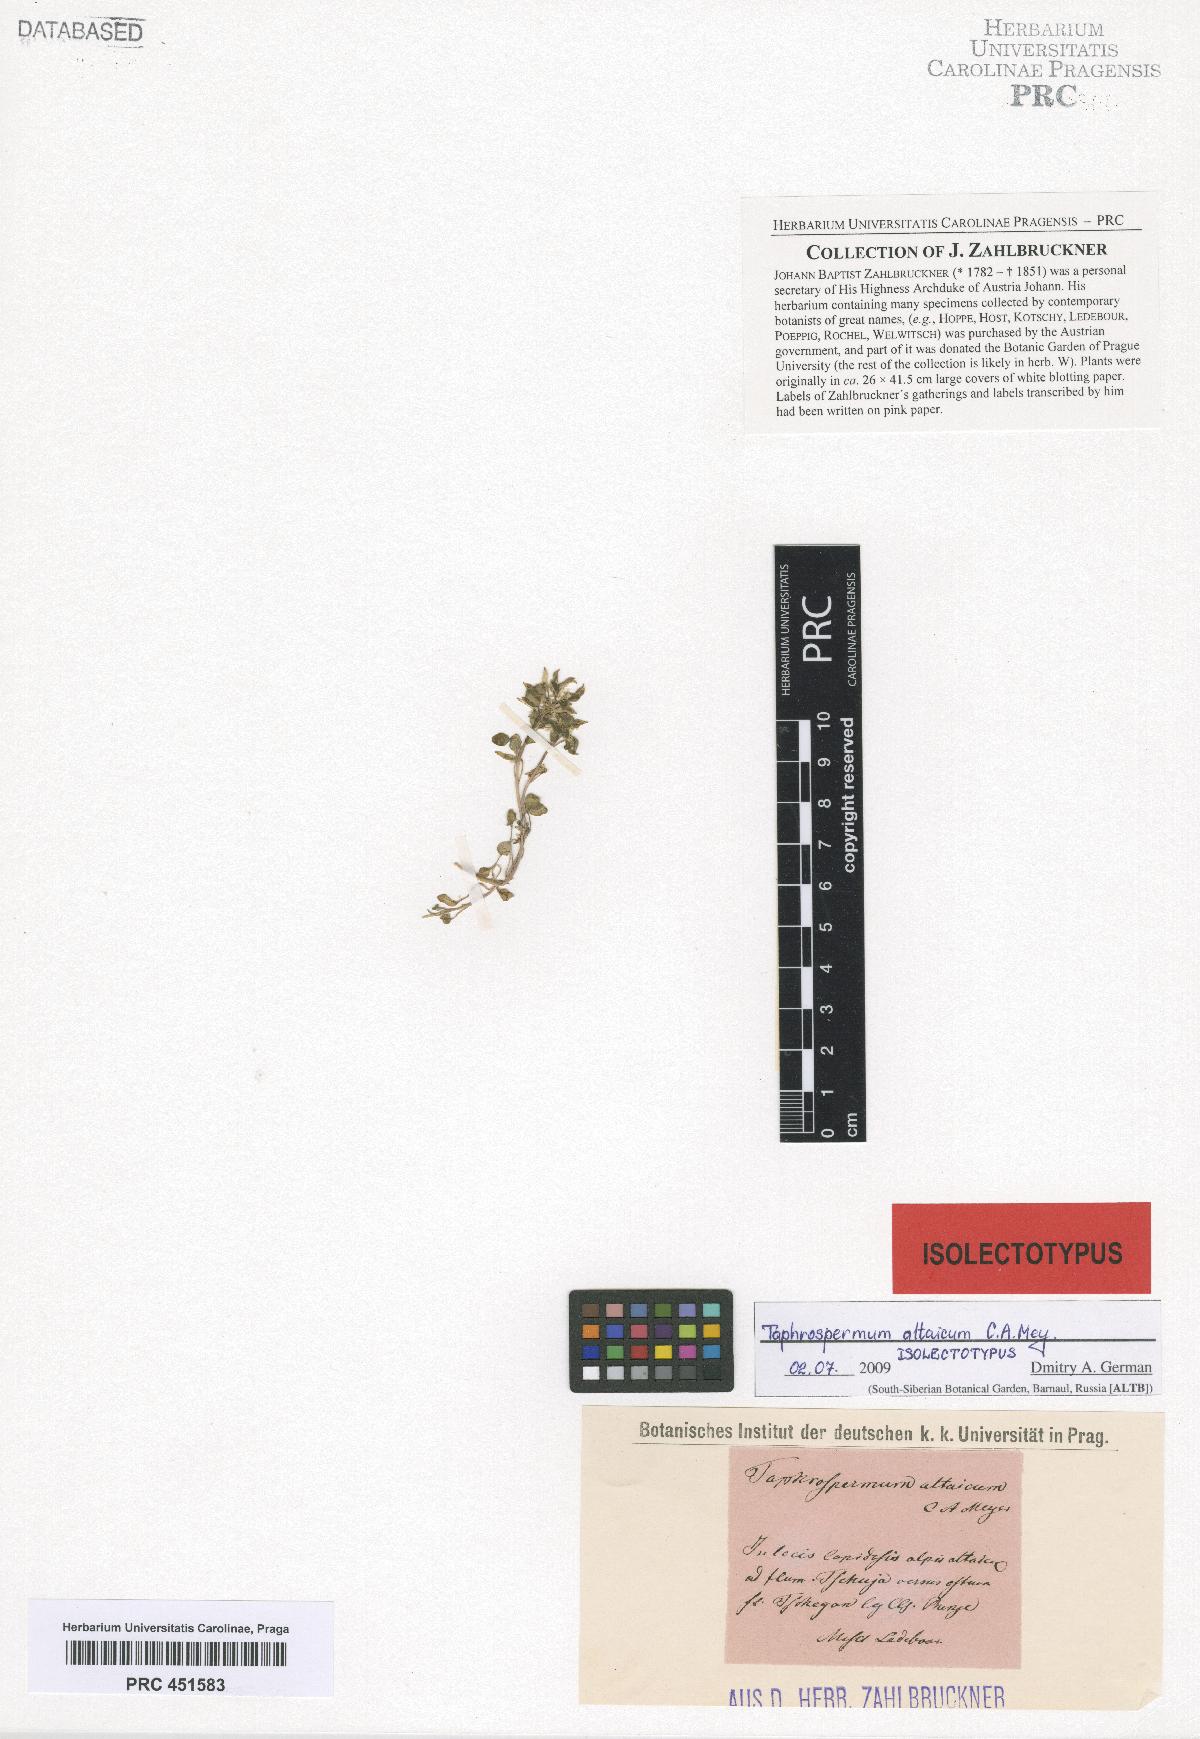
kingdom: Plantae
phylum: Tracheophyta
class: Magnoliopsida
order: Brassicales
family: Brassicaceae
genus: Eutrema
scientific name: Eutrema altaicum
